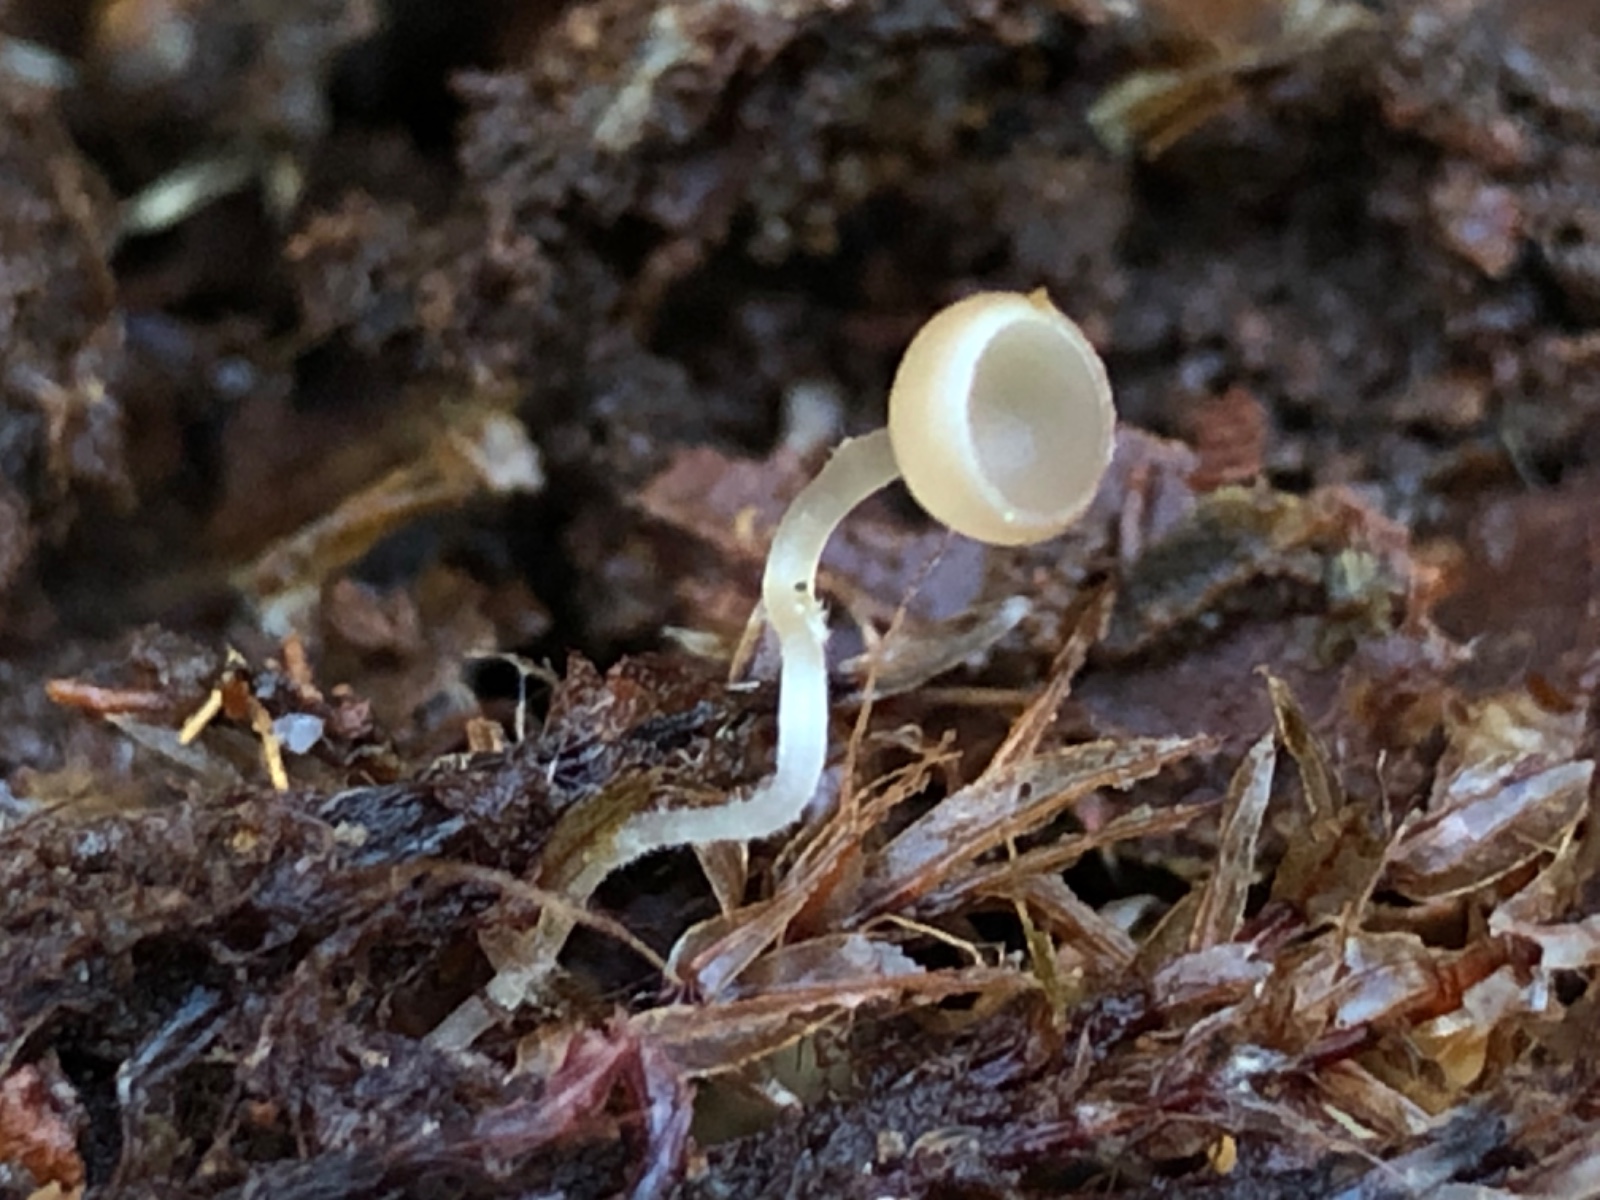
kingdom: Fungi
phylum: Ascomycota
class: Leotiomycetes
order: Helotiales
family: Sclerotiniaceae
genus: Ciboria
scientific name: Ciboria
